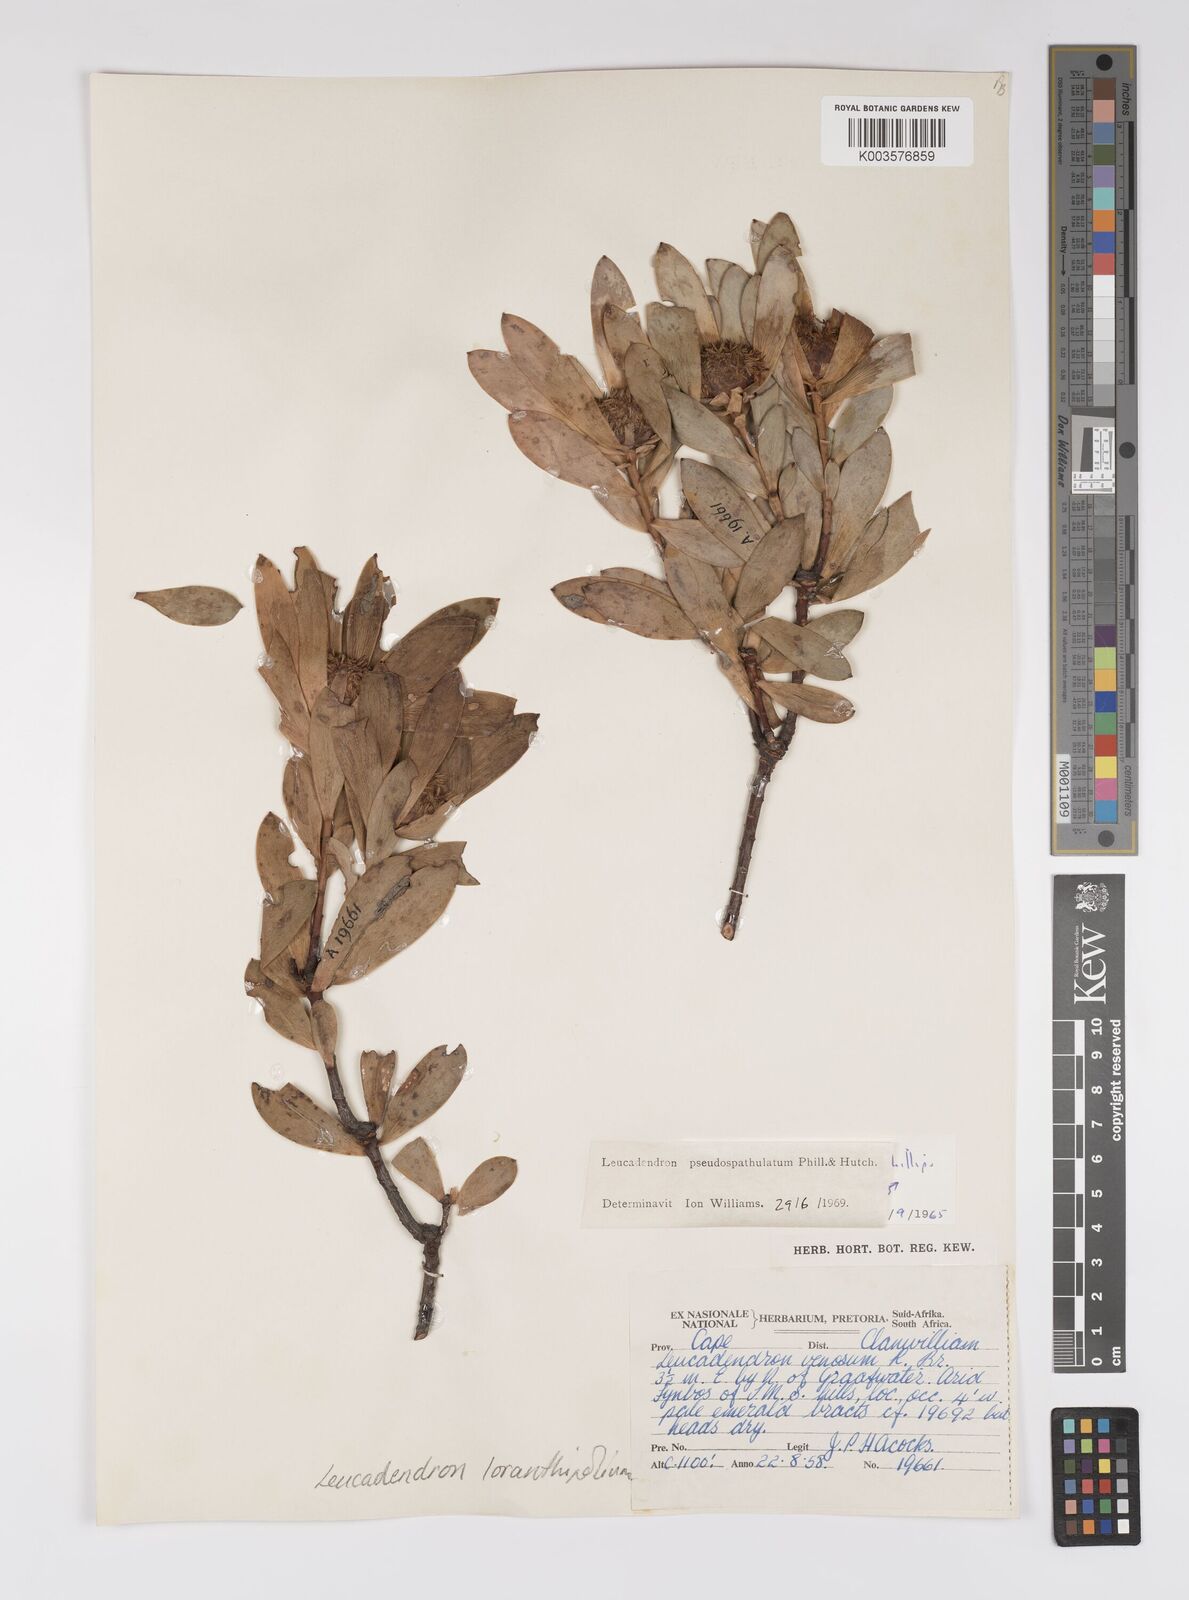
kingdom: Plantae
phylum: Tracheophyta
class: Magnoliopsida
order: Proteales
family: Proteaceae
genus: Leucadendron
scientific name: Leucadendron loranthifolium
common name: Green-flower sunbush
